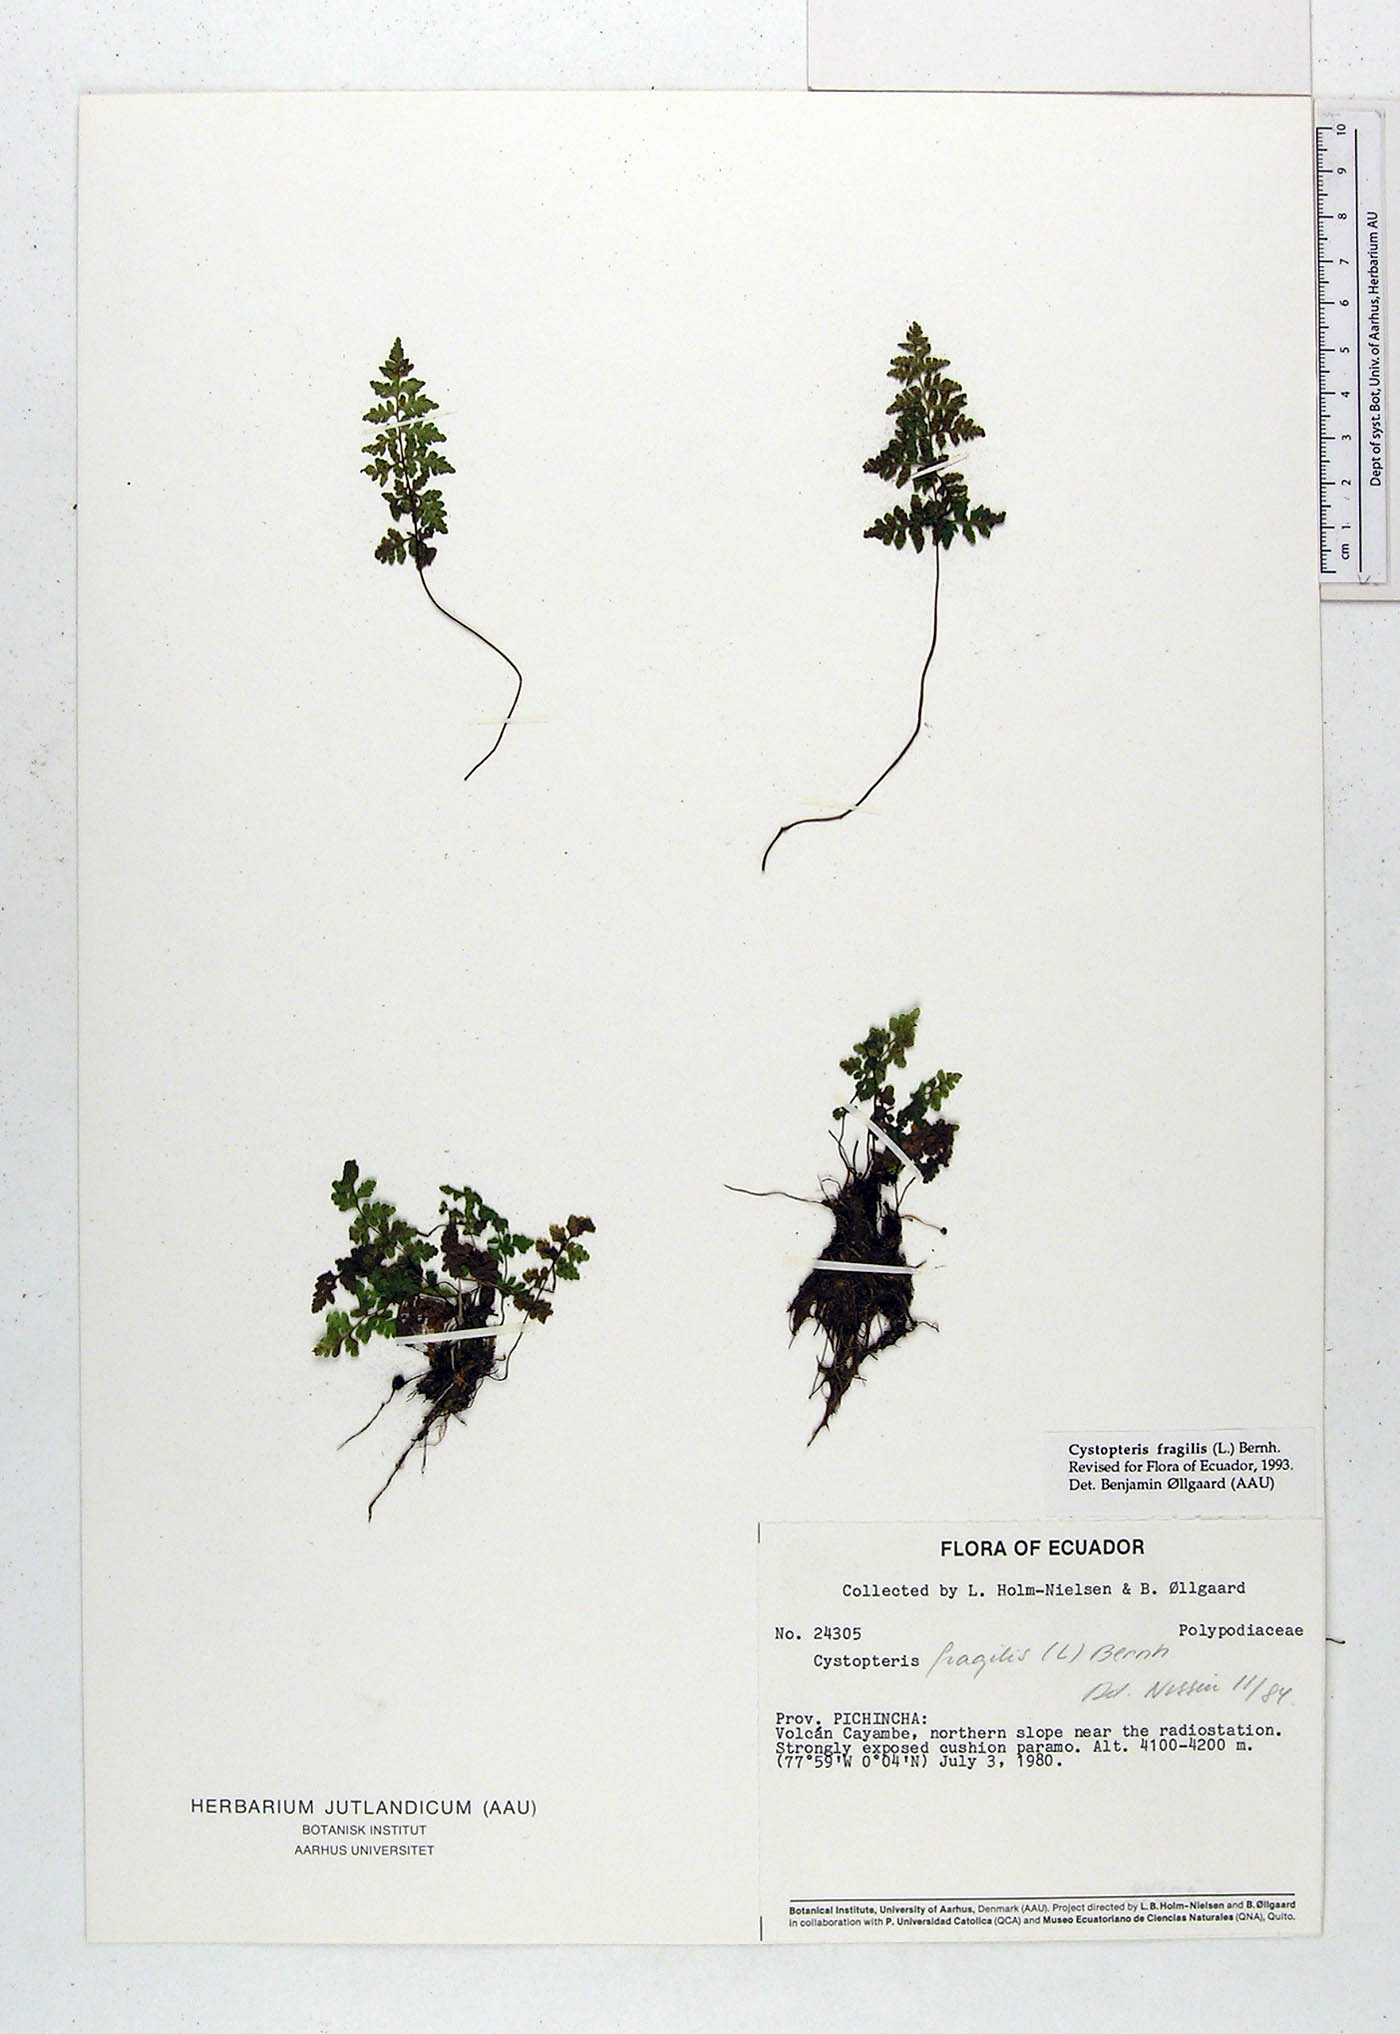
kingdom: Plantae
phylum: Tracheophyta
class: Polypodiopsida
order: Polypodiales
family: Cystopteridaceae
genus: Cystopteris
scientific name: Cystopteris fragilis
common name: Brittle bladder fern
